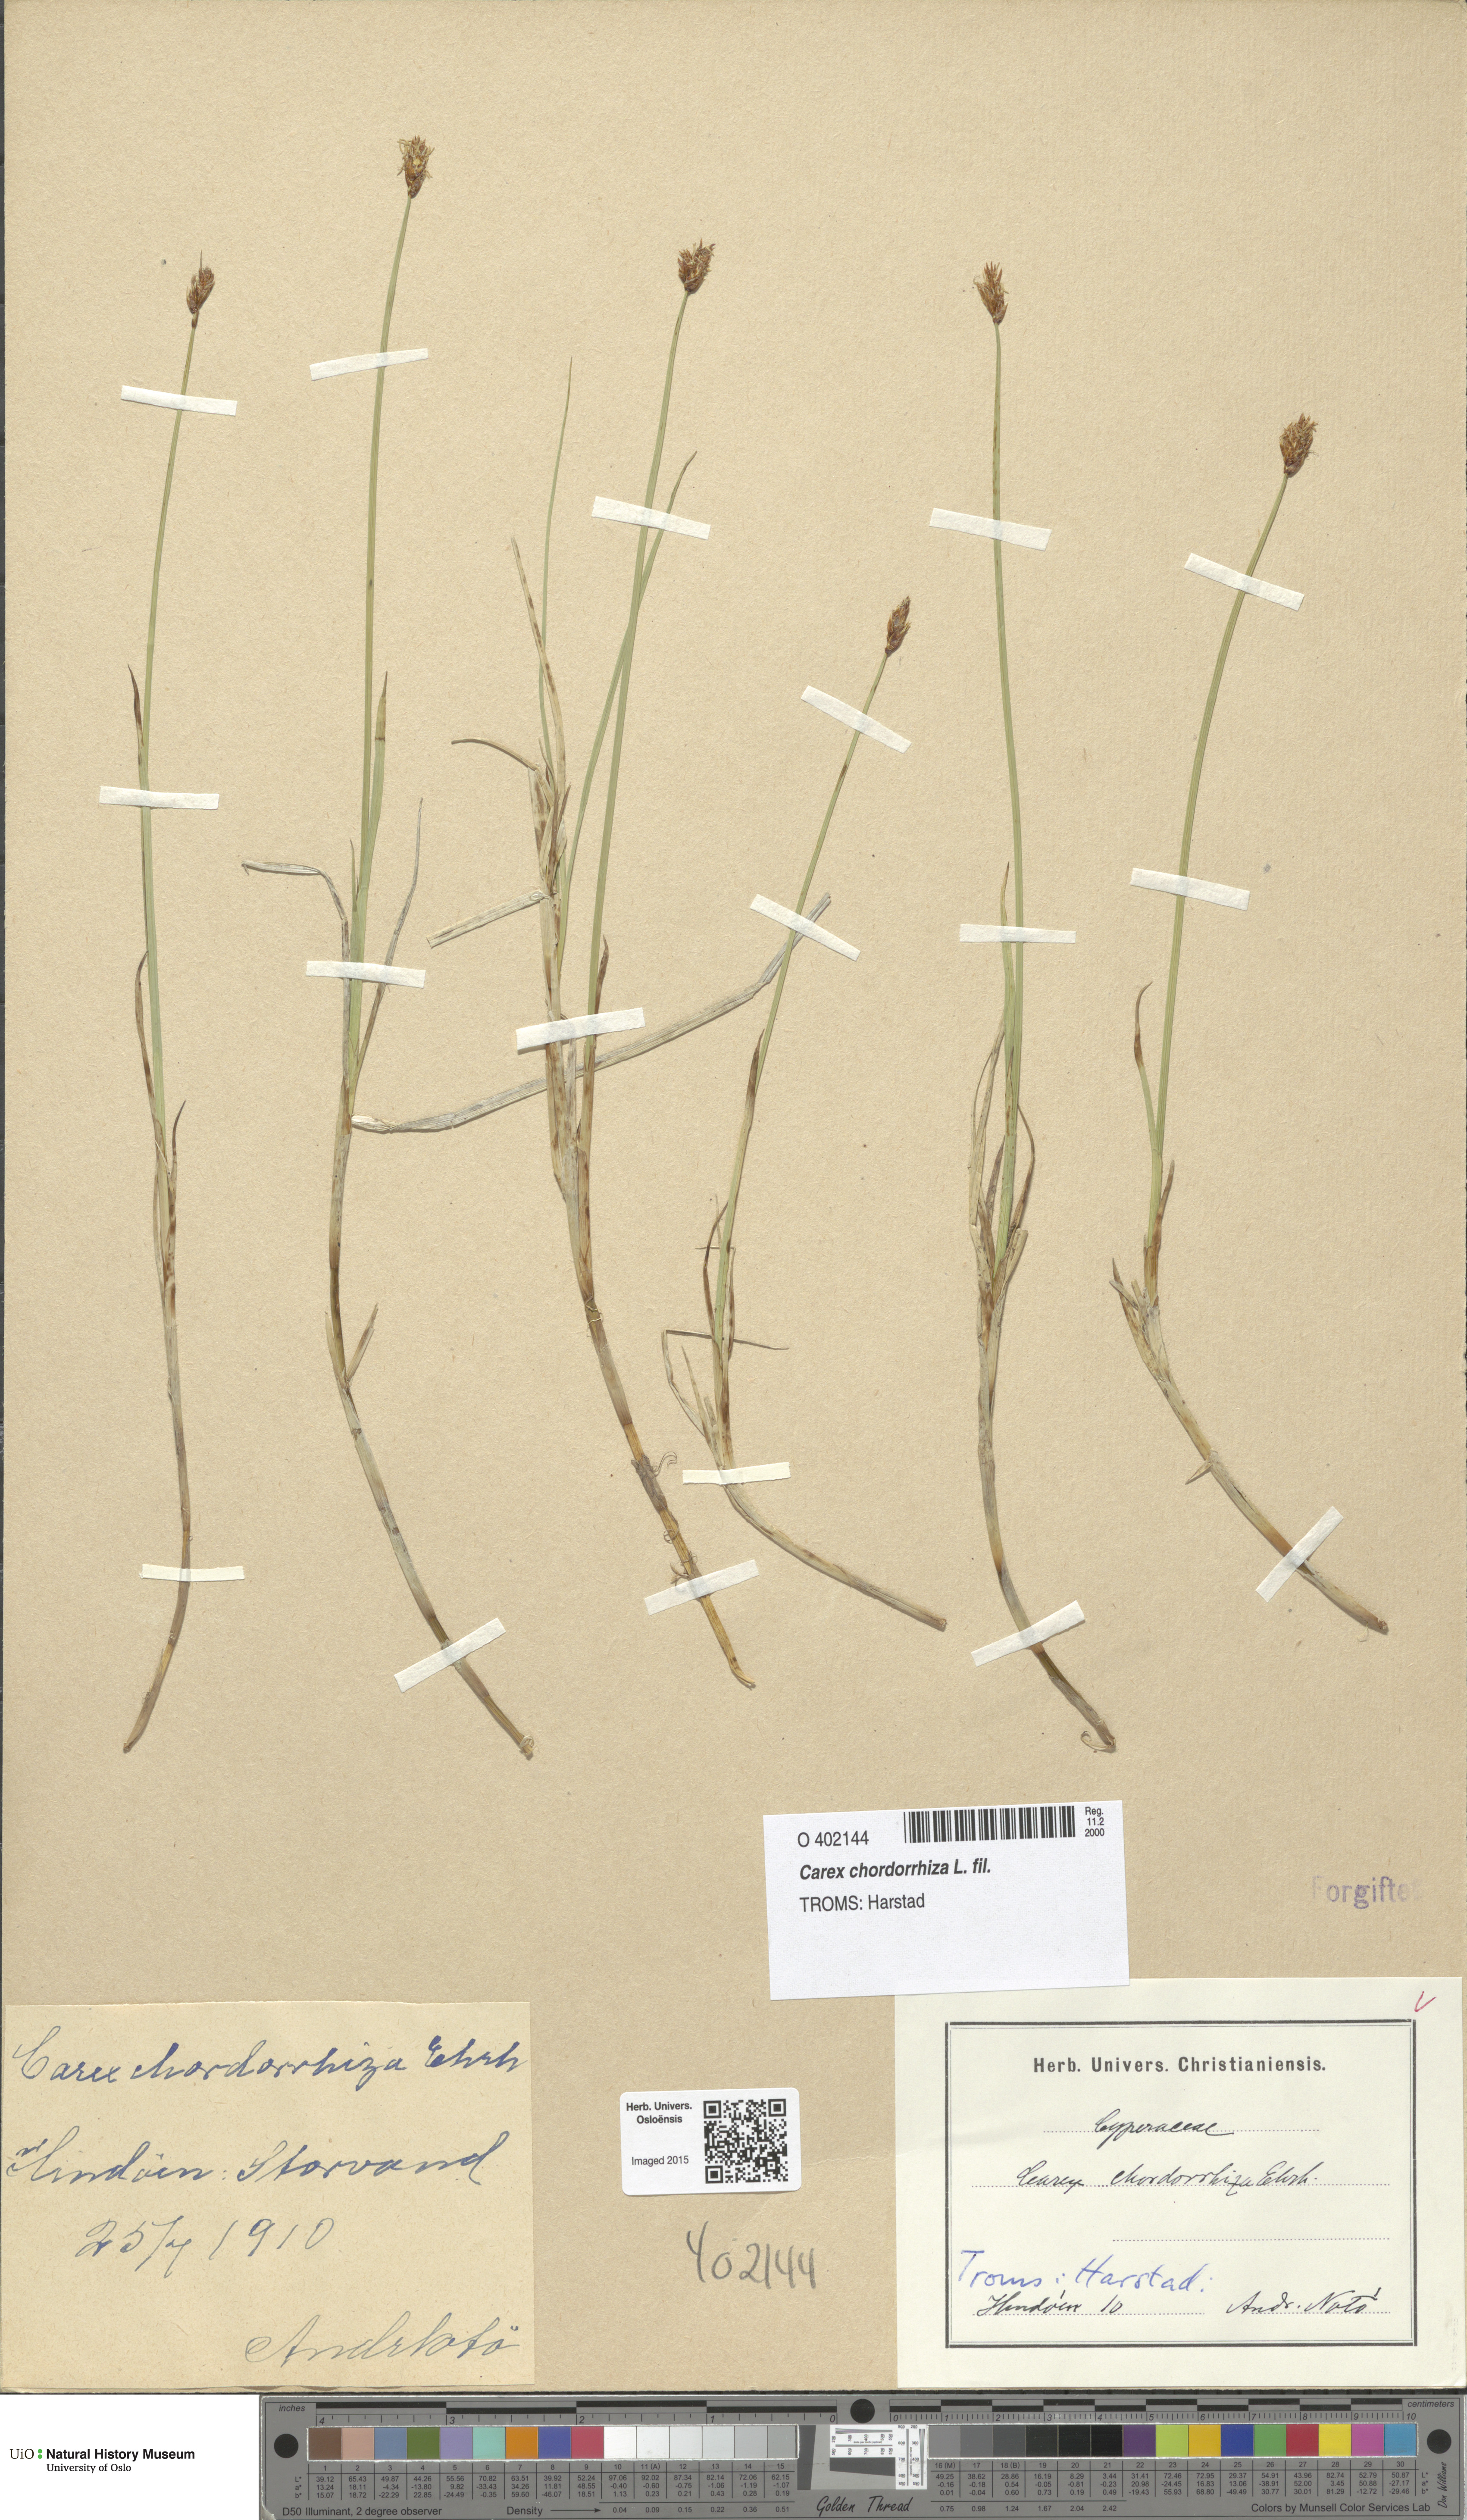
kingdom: Plantae
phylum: Tracheophyta
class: Liliopsida
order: Poales
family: Cyperaceae
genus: Carex
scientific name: Carex chordorrhiza
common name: String sedge
